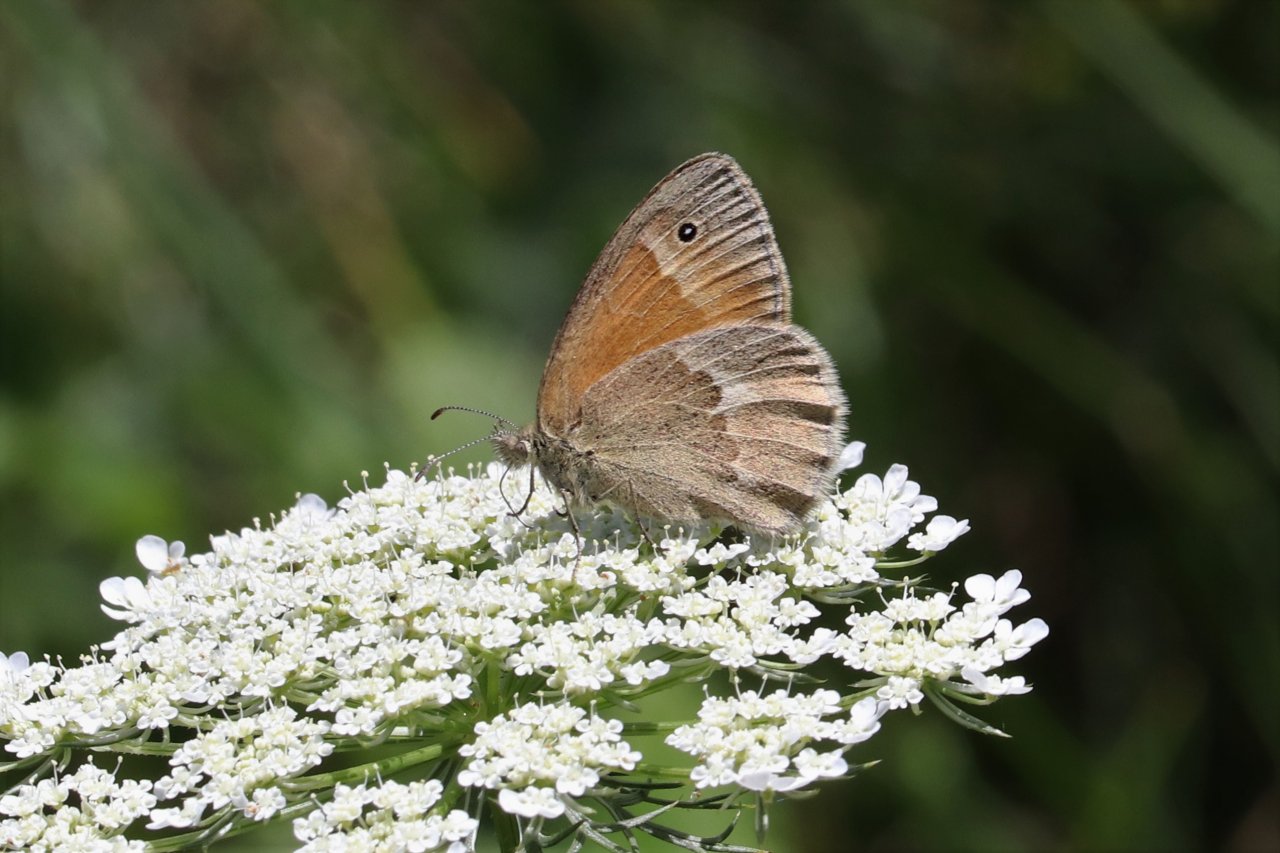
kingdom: Animalia
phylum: Arthropoda
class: Insecta
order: Lepidoptera
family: Nymphalidae
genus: Coenonympha
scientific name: Coenonympha tullia
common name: Large Heath
